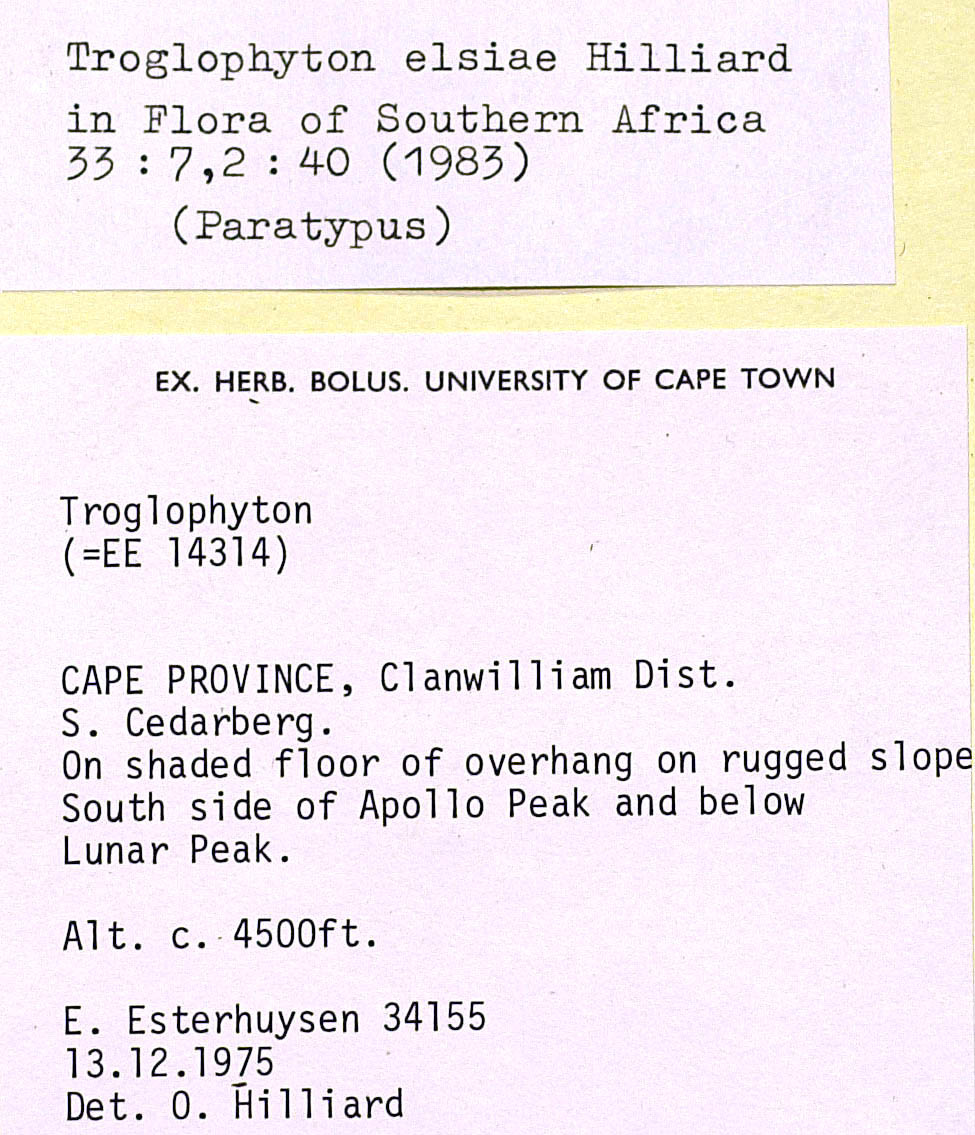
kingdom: Plantae
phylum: Tracheophyta
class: Magnoliopsida
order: Asterales
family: Asteraceae
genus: Troglophyton
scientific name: Troglophyton elsiae
